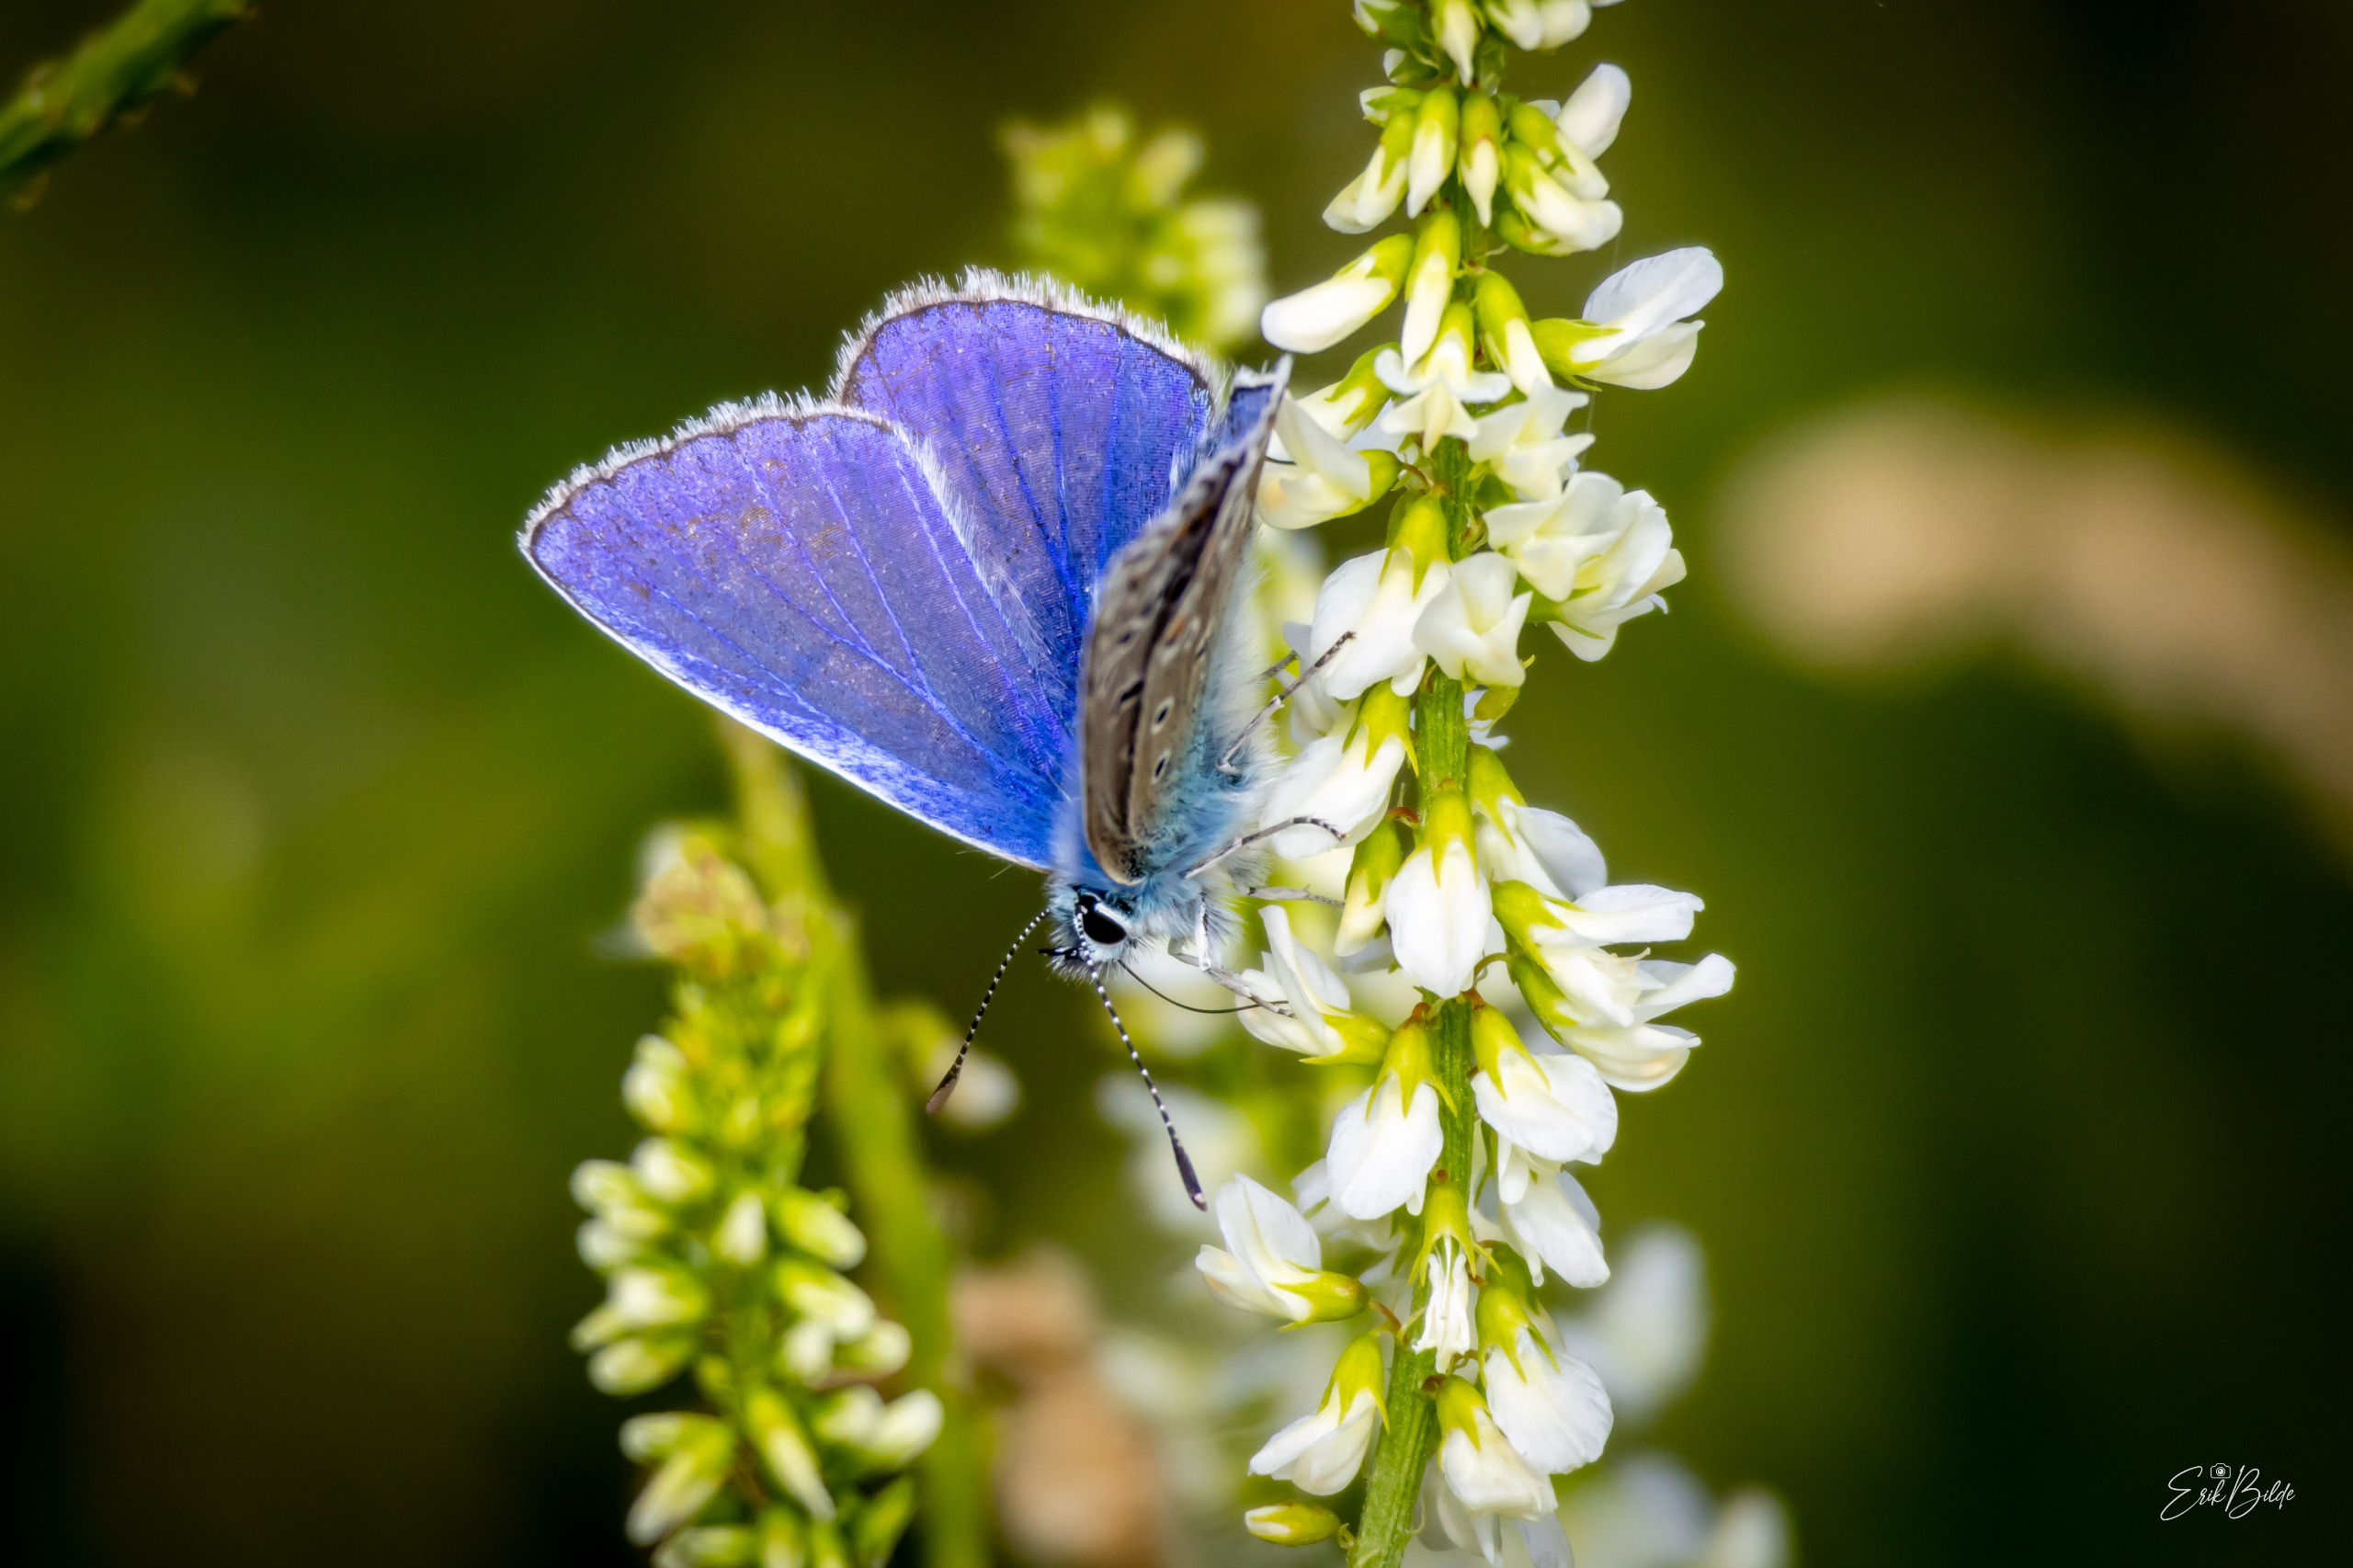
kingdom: Animalia
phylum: Arthropoda
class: Insecta
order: Lepidoptera
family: Lycaenidae
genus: Polyommatus
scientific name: Polyommatus icarus
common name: Almindelig blåfugl
